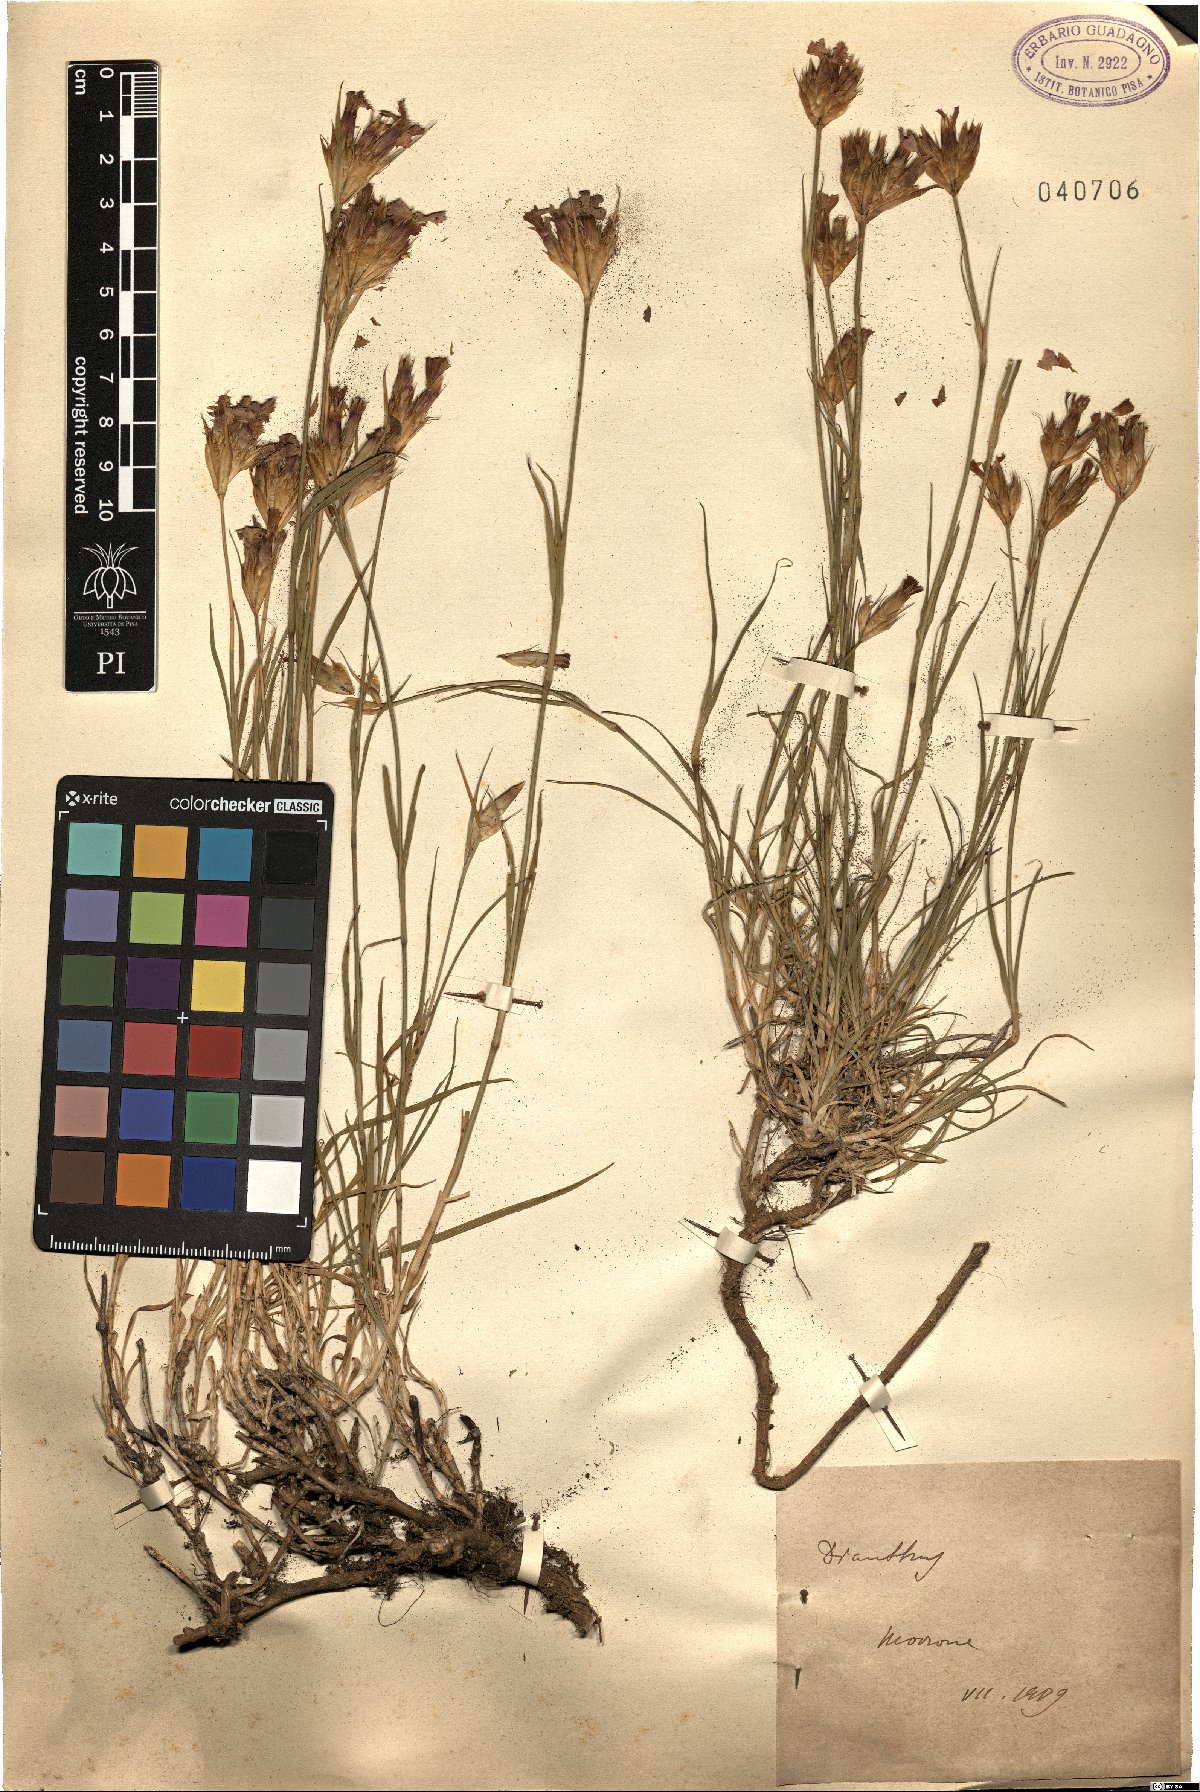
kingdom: Plantae
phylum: Tracheophyta
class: Magnoliopsida
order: Caryophyllales
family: Caryophyllaceae
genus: Dianthus
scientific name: Dianthus
